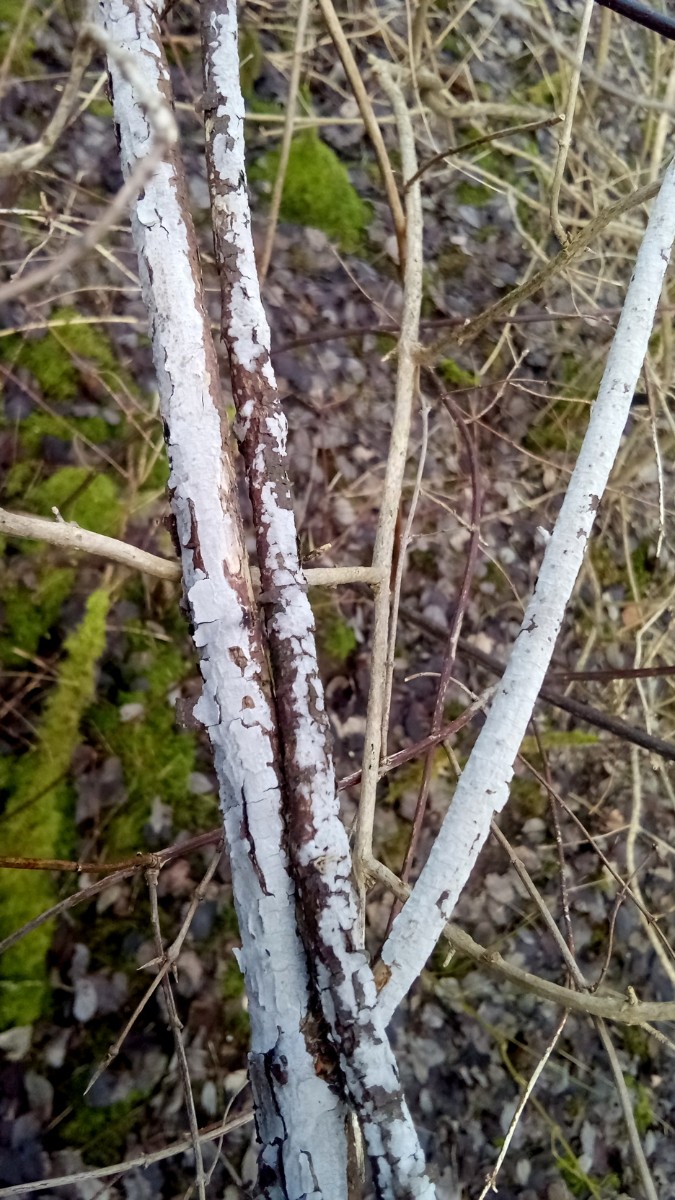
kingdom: Fungi
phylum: Basidiomycota
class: Agaricomycetes
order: Russulales
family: Peniophoraceae
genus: Peniophora
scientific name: Peniophora lycii
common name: grynet voksskind
